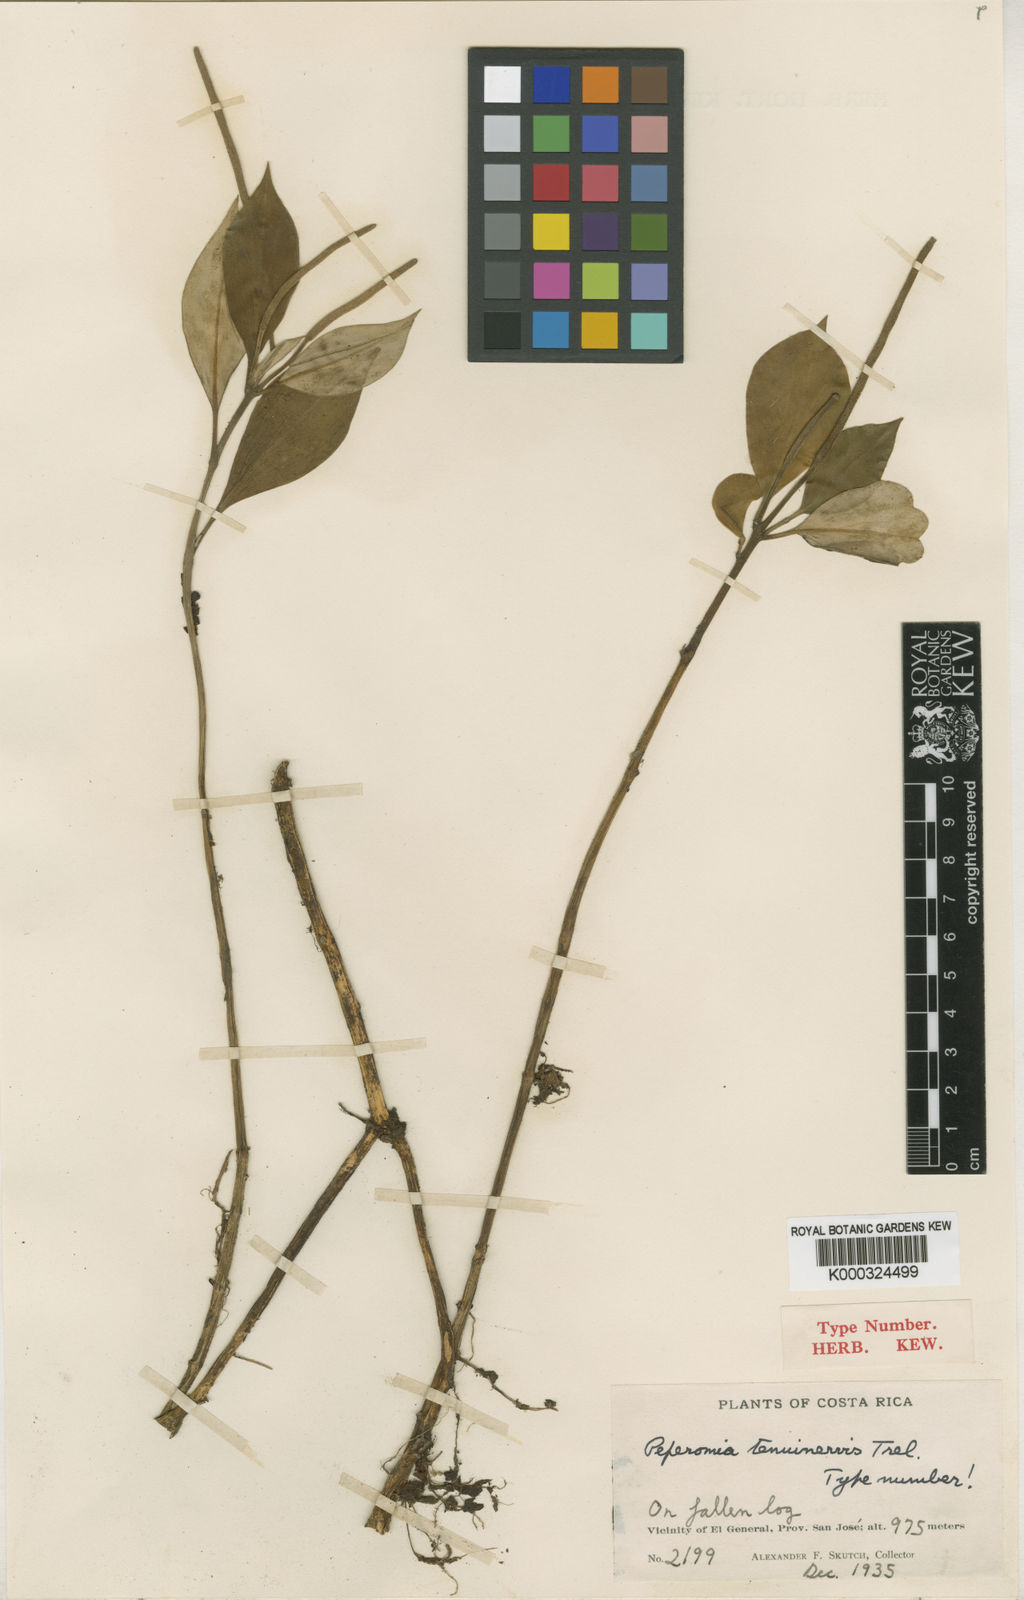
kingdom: Plantae
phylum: Tracheophyta
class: Magnoliopsida
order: Piperales
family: Piperaceae
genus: Peperomia
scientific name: Peperomia
